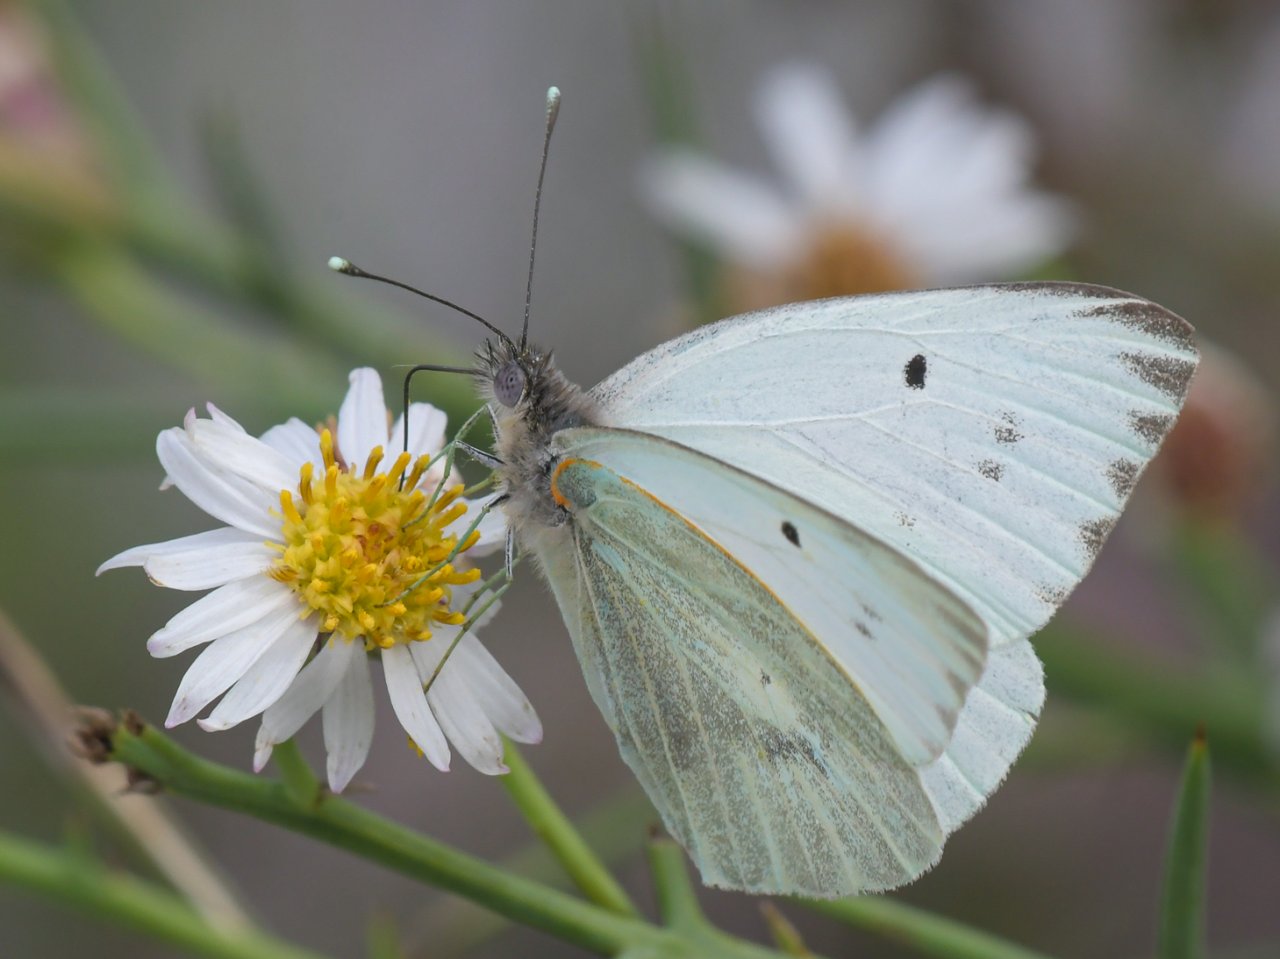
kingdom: Animalia
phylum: Arthropoda
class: Insecta
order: Lepidoptera
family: Pieridae
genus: Ganyra
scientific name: Ganyra howarthi
